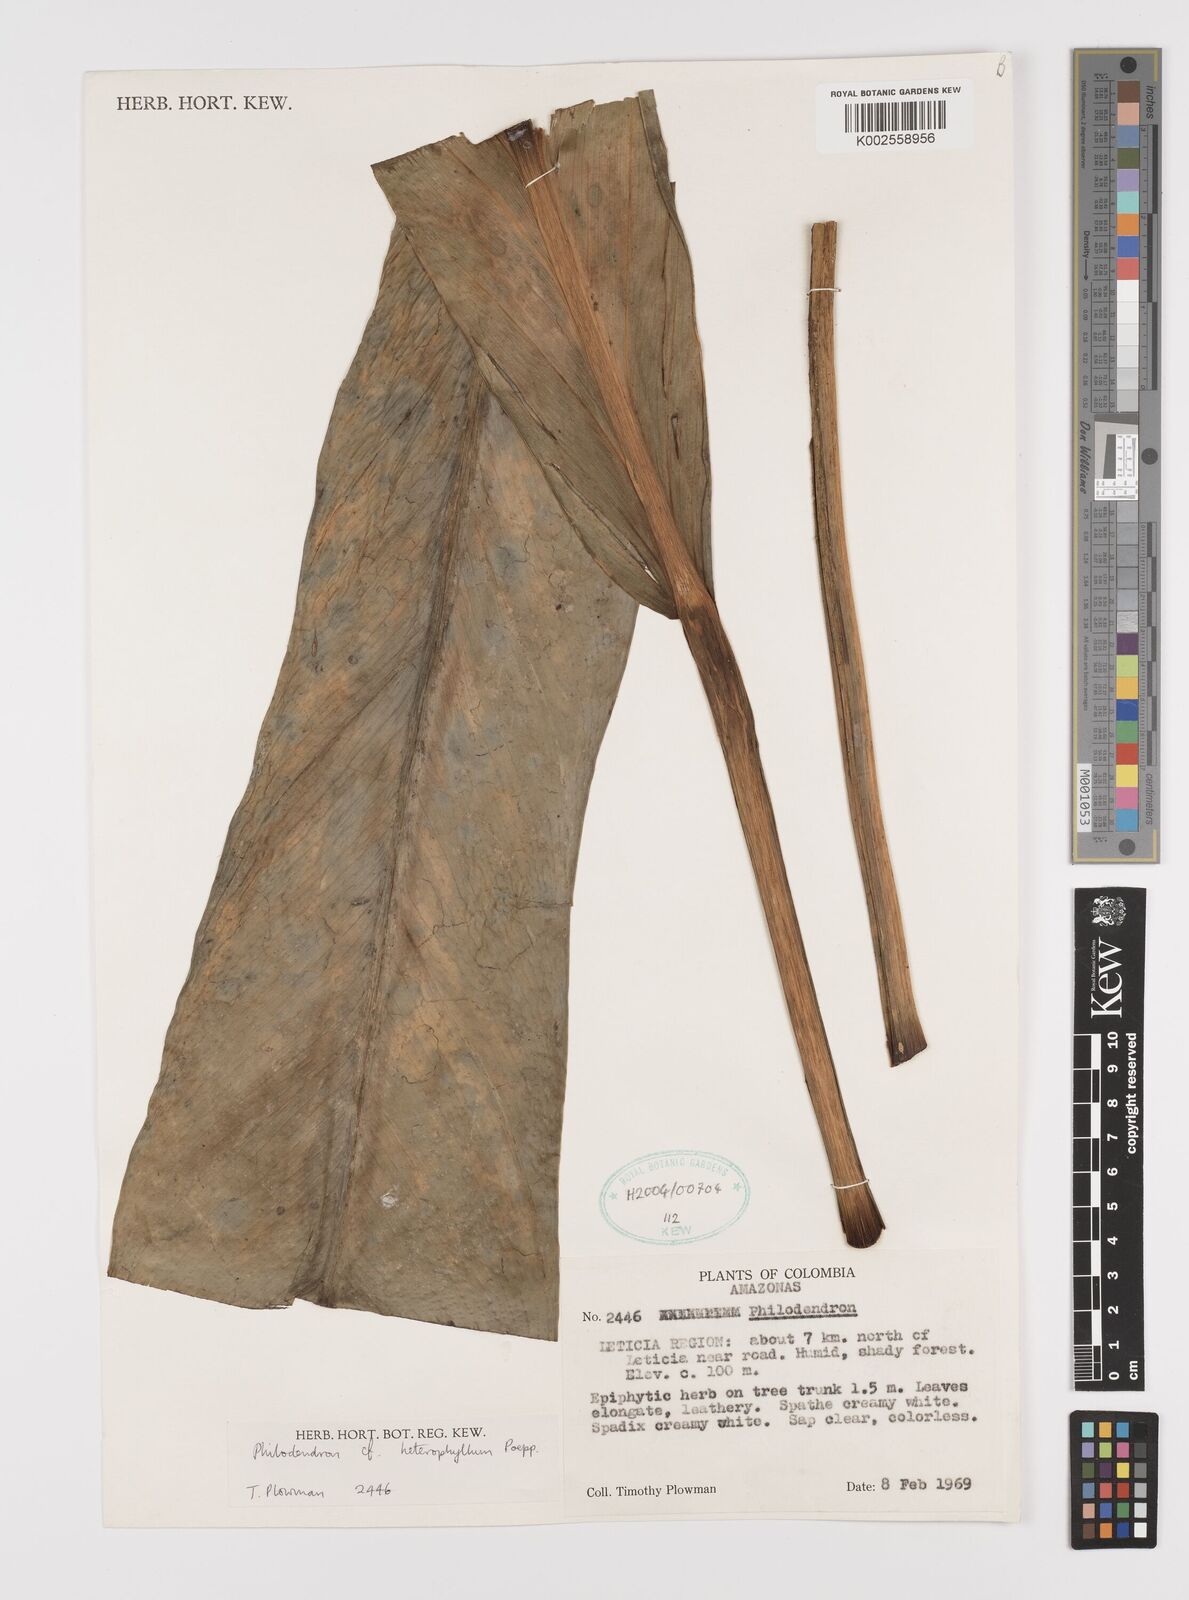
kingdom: Plantae
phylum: Tracheophyta
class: Liliopsida
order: Alismatales
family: Araceae
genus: Philodendron
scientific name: Philodendron heterophyllum
